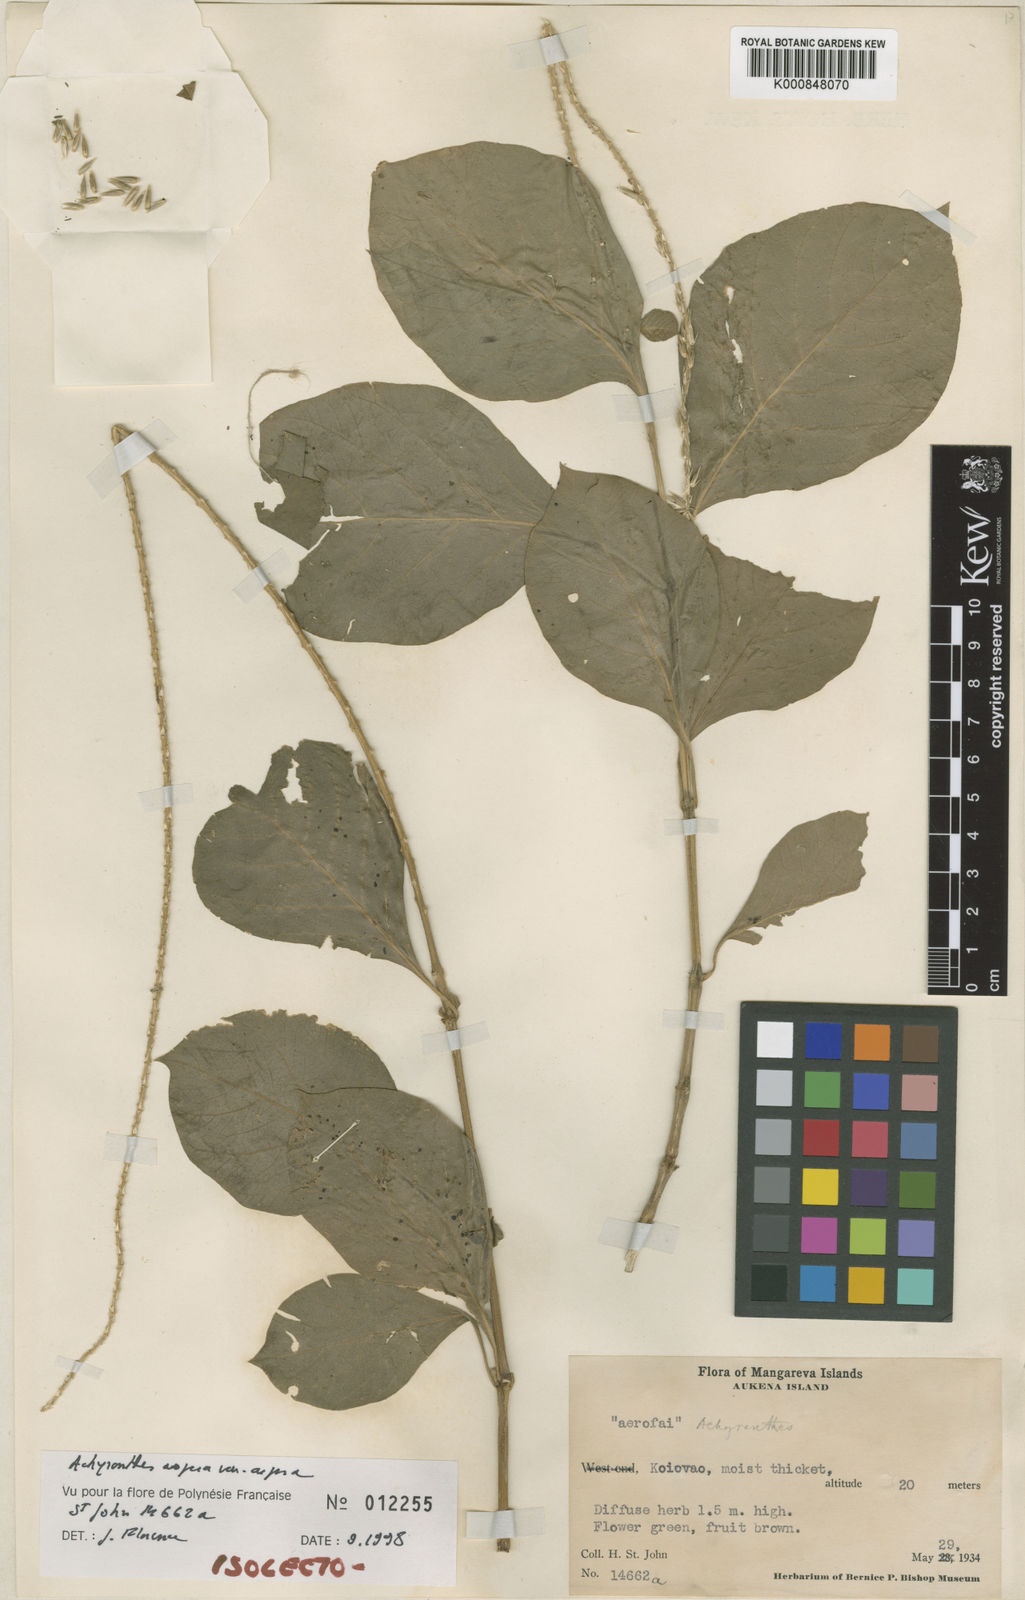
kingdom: Plantae
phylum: Tracheophyta
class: Magnoliopsida
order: Caryophyllales
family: Amaranthaceae
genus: Achyranthes
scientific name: Achyranthes aspera
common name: Devil's horsewhip
